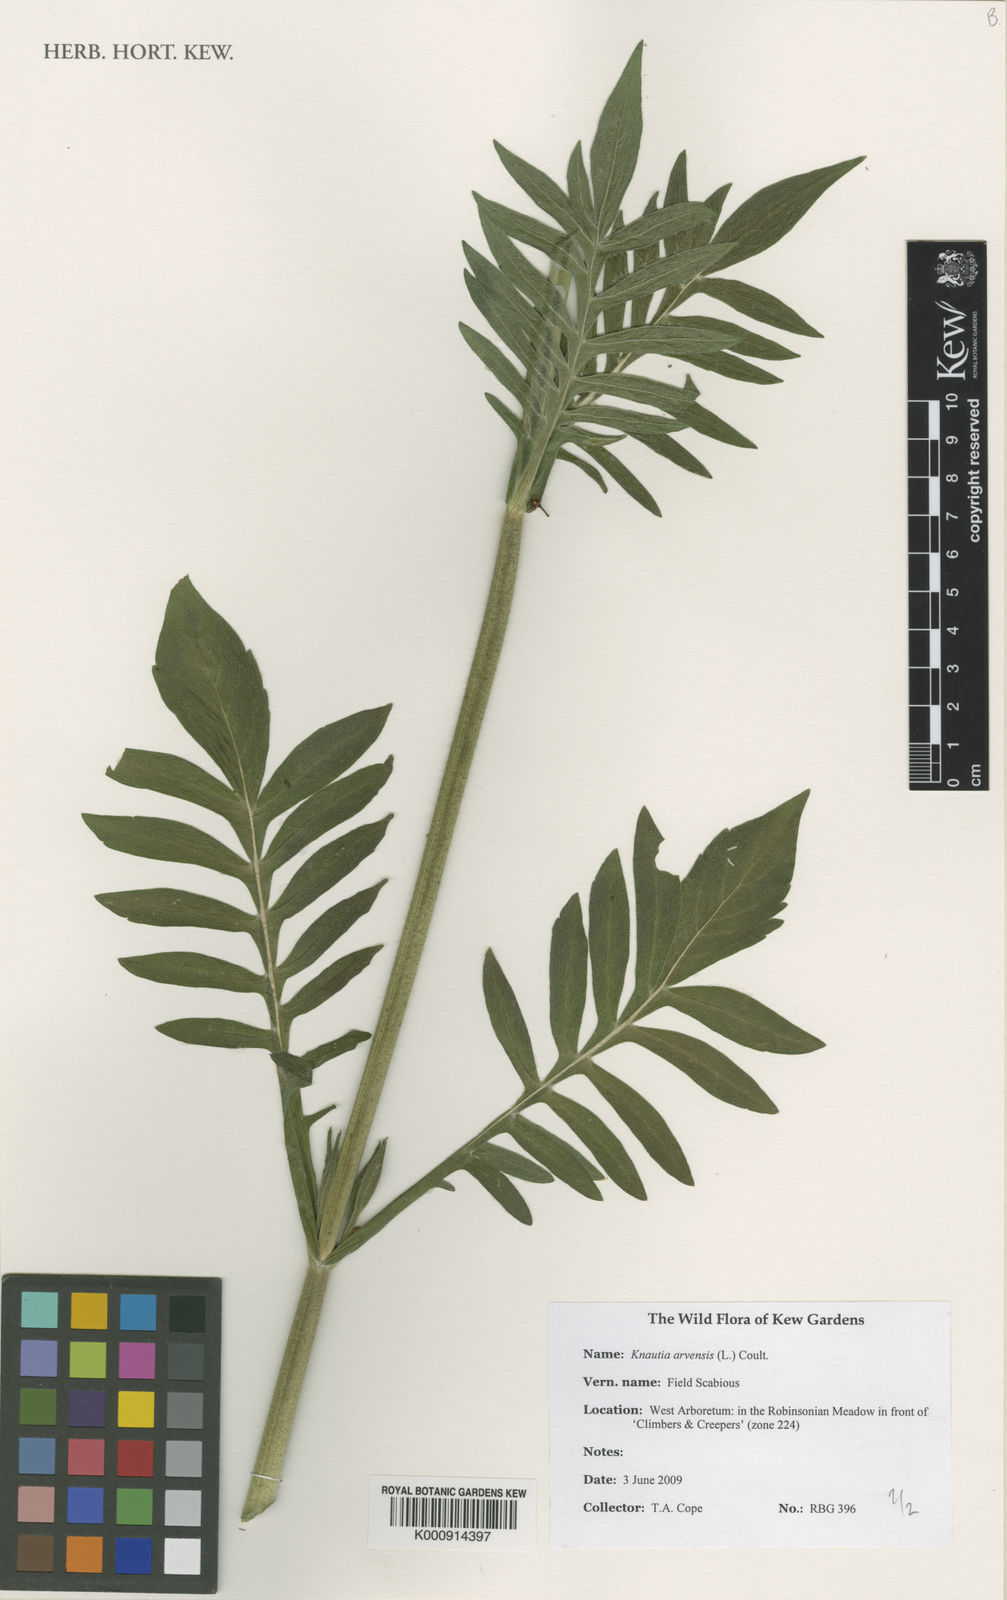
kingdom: Plantae
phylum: Tracheophyta
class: Magnoliopsida
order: Dipsacales
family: Caprifoliaceae
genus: Knautia
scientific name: Knautia arvensis
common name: Field scabiosa
